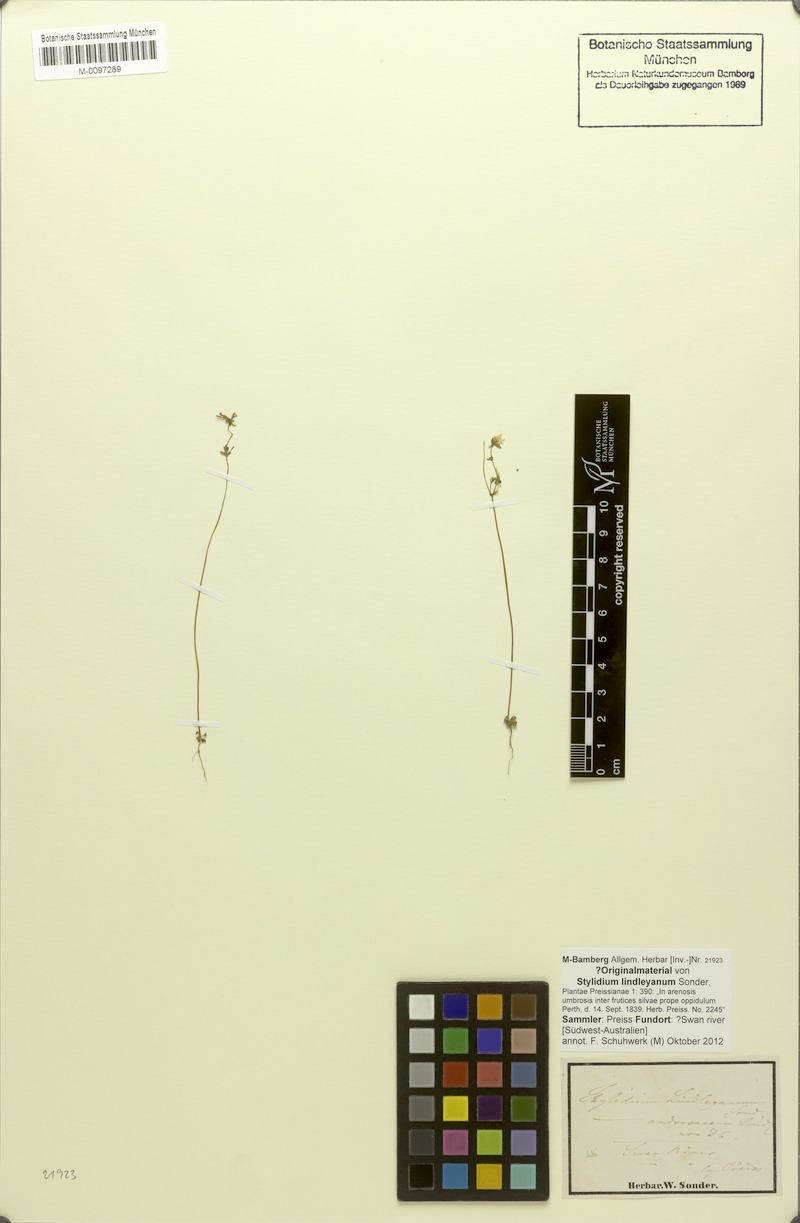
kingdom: Plantae
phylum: Tracheophyta
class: Magnoliopsida
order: Asterales
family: Stylidiaceae
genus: Stylidium
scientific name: Stylidium calcaratum
